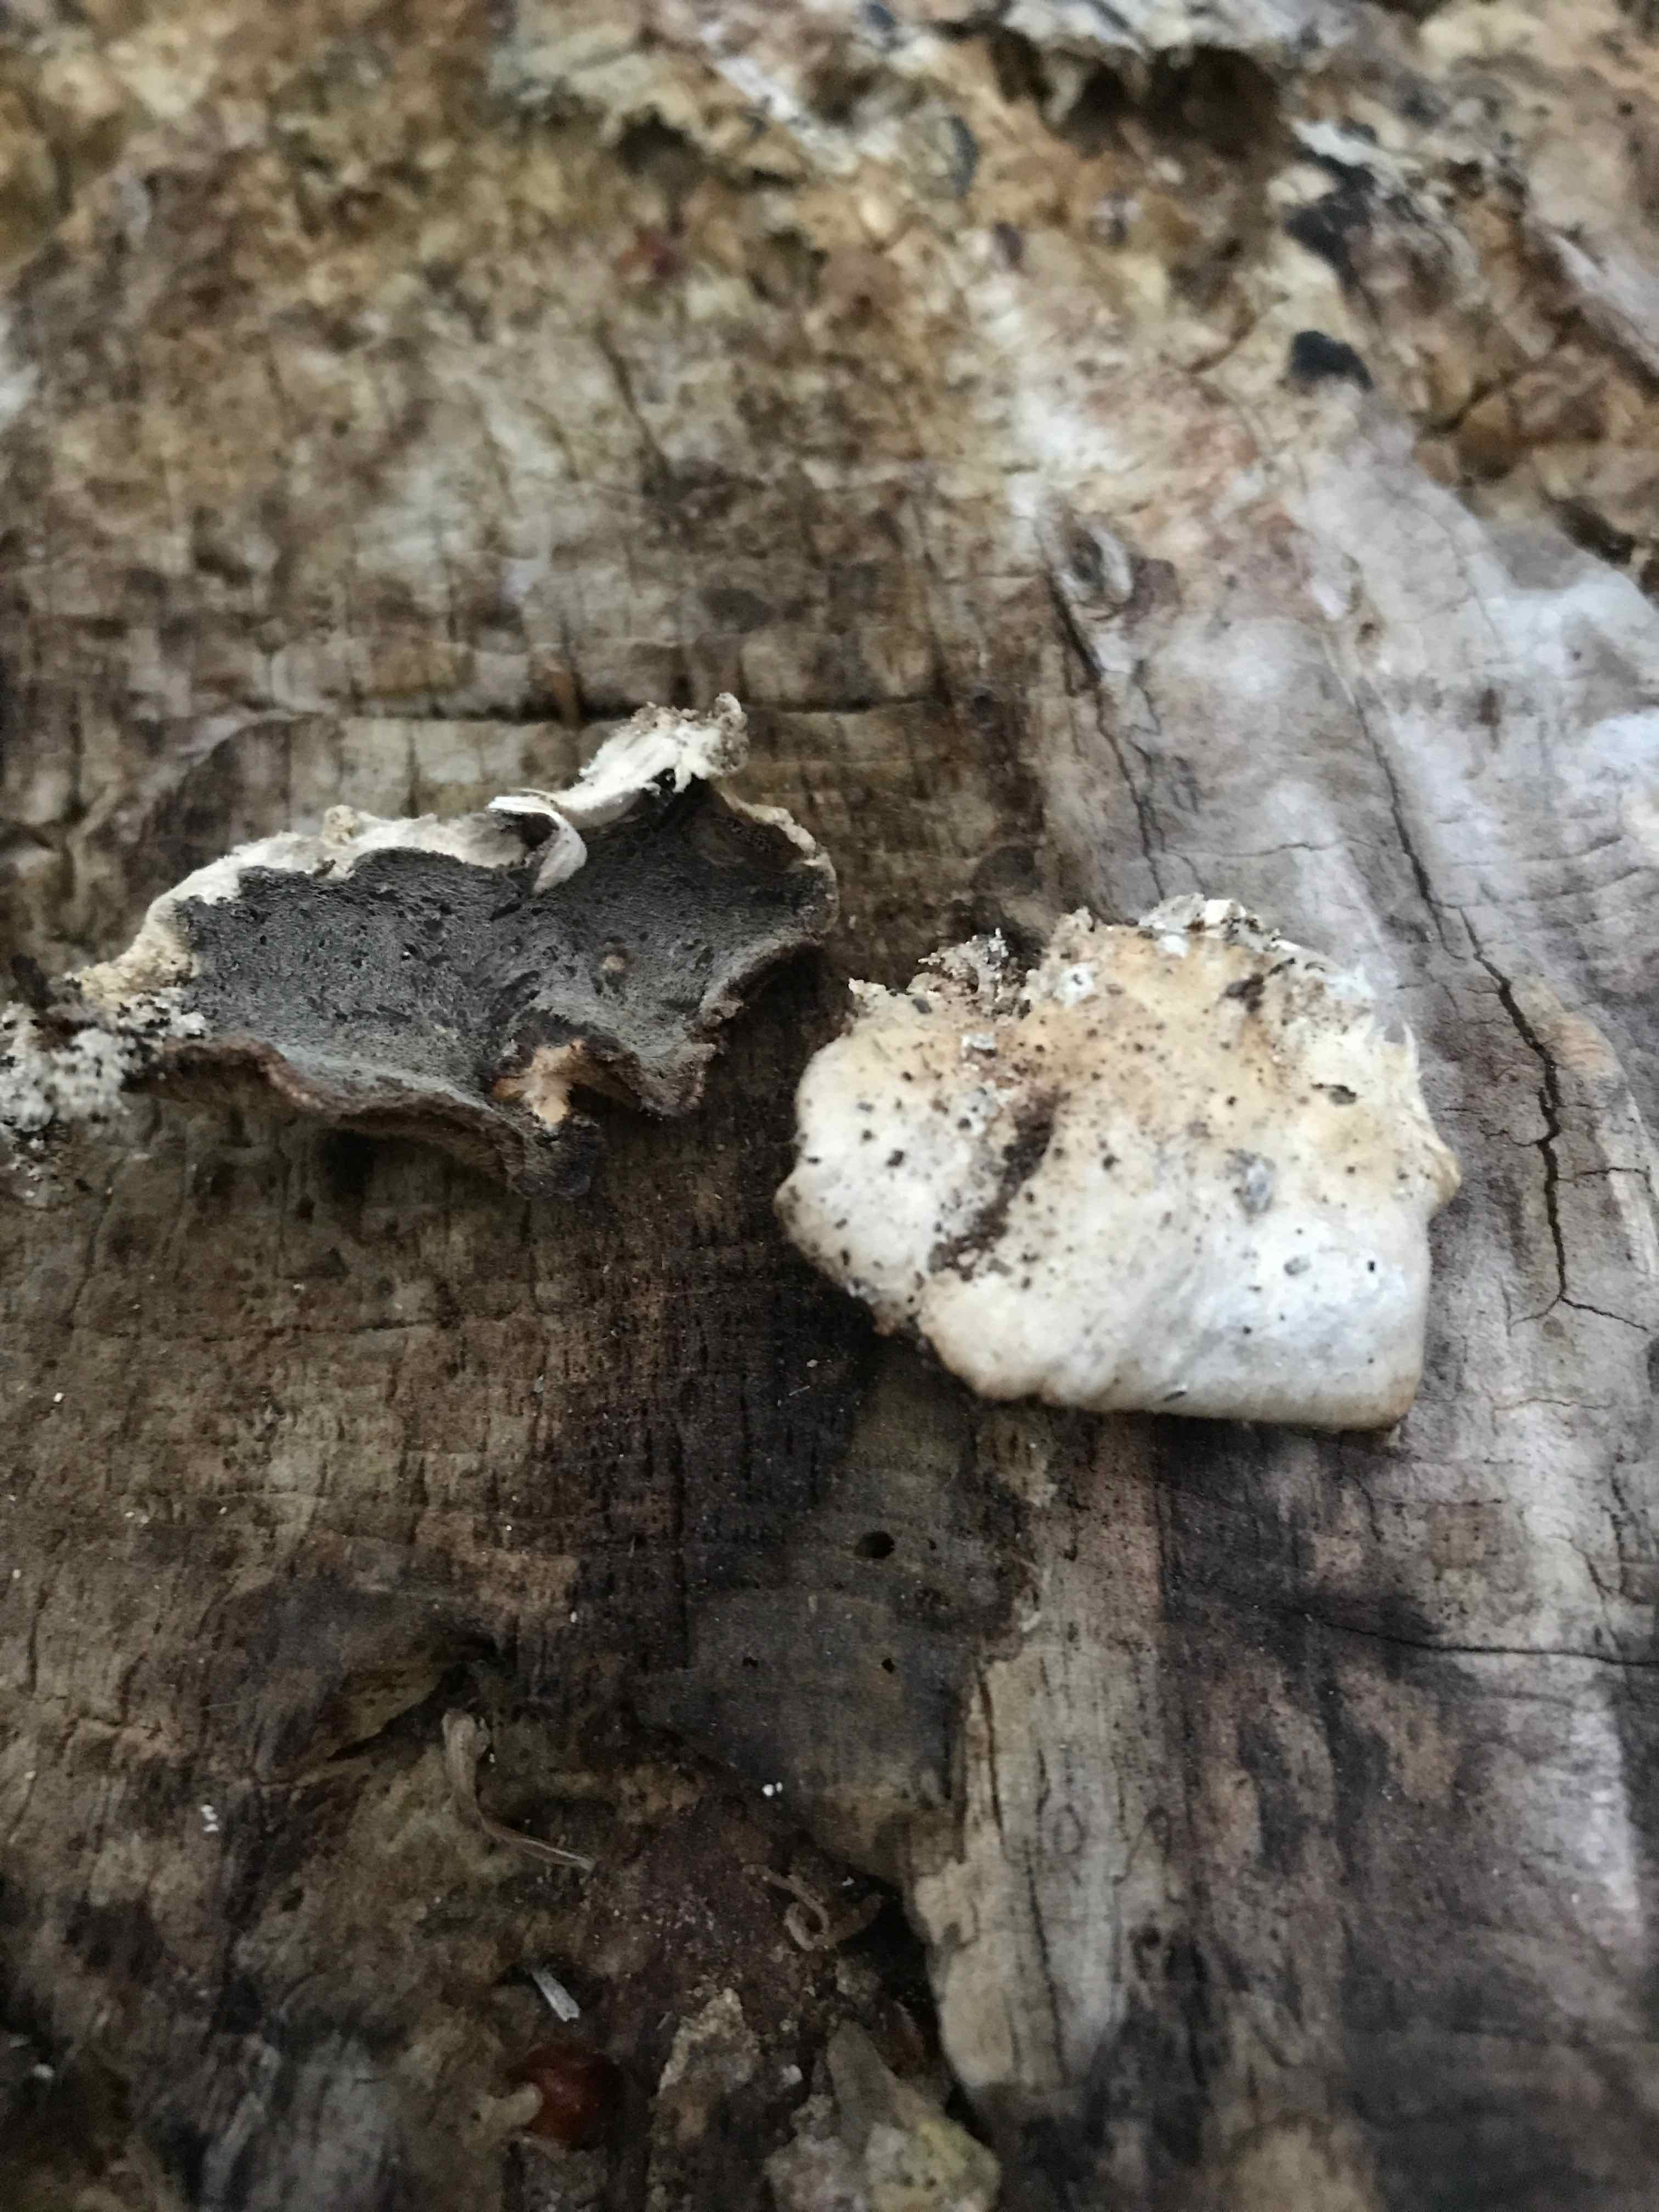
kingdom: Fungi
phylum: Basidiomycota
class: Agaricomycetes
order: Polyporales
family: Phanerochaetaceae
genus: Bjerkandera
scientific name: Bjerkandera adusta
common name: sveden sodporesvamp
